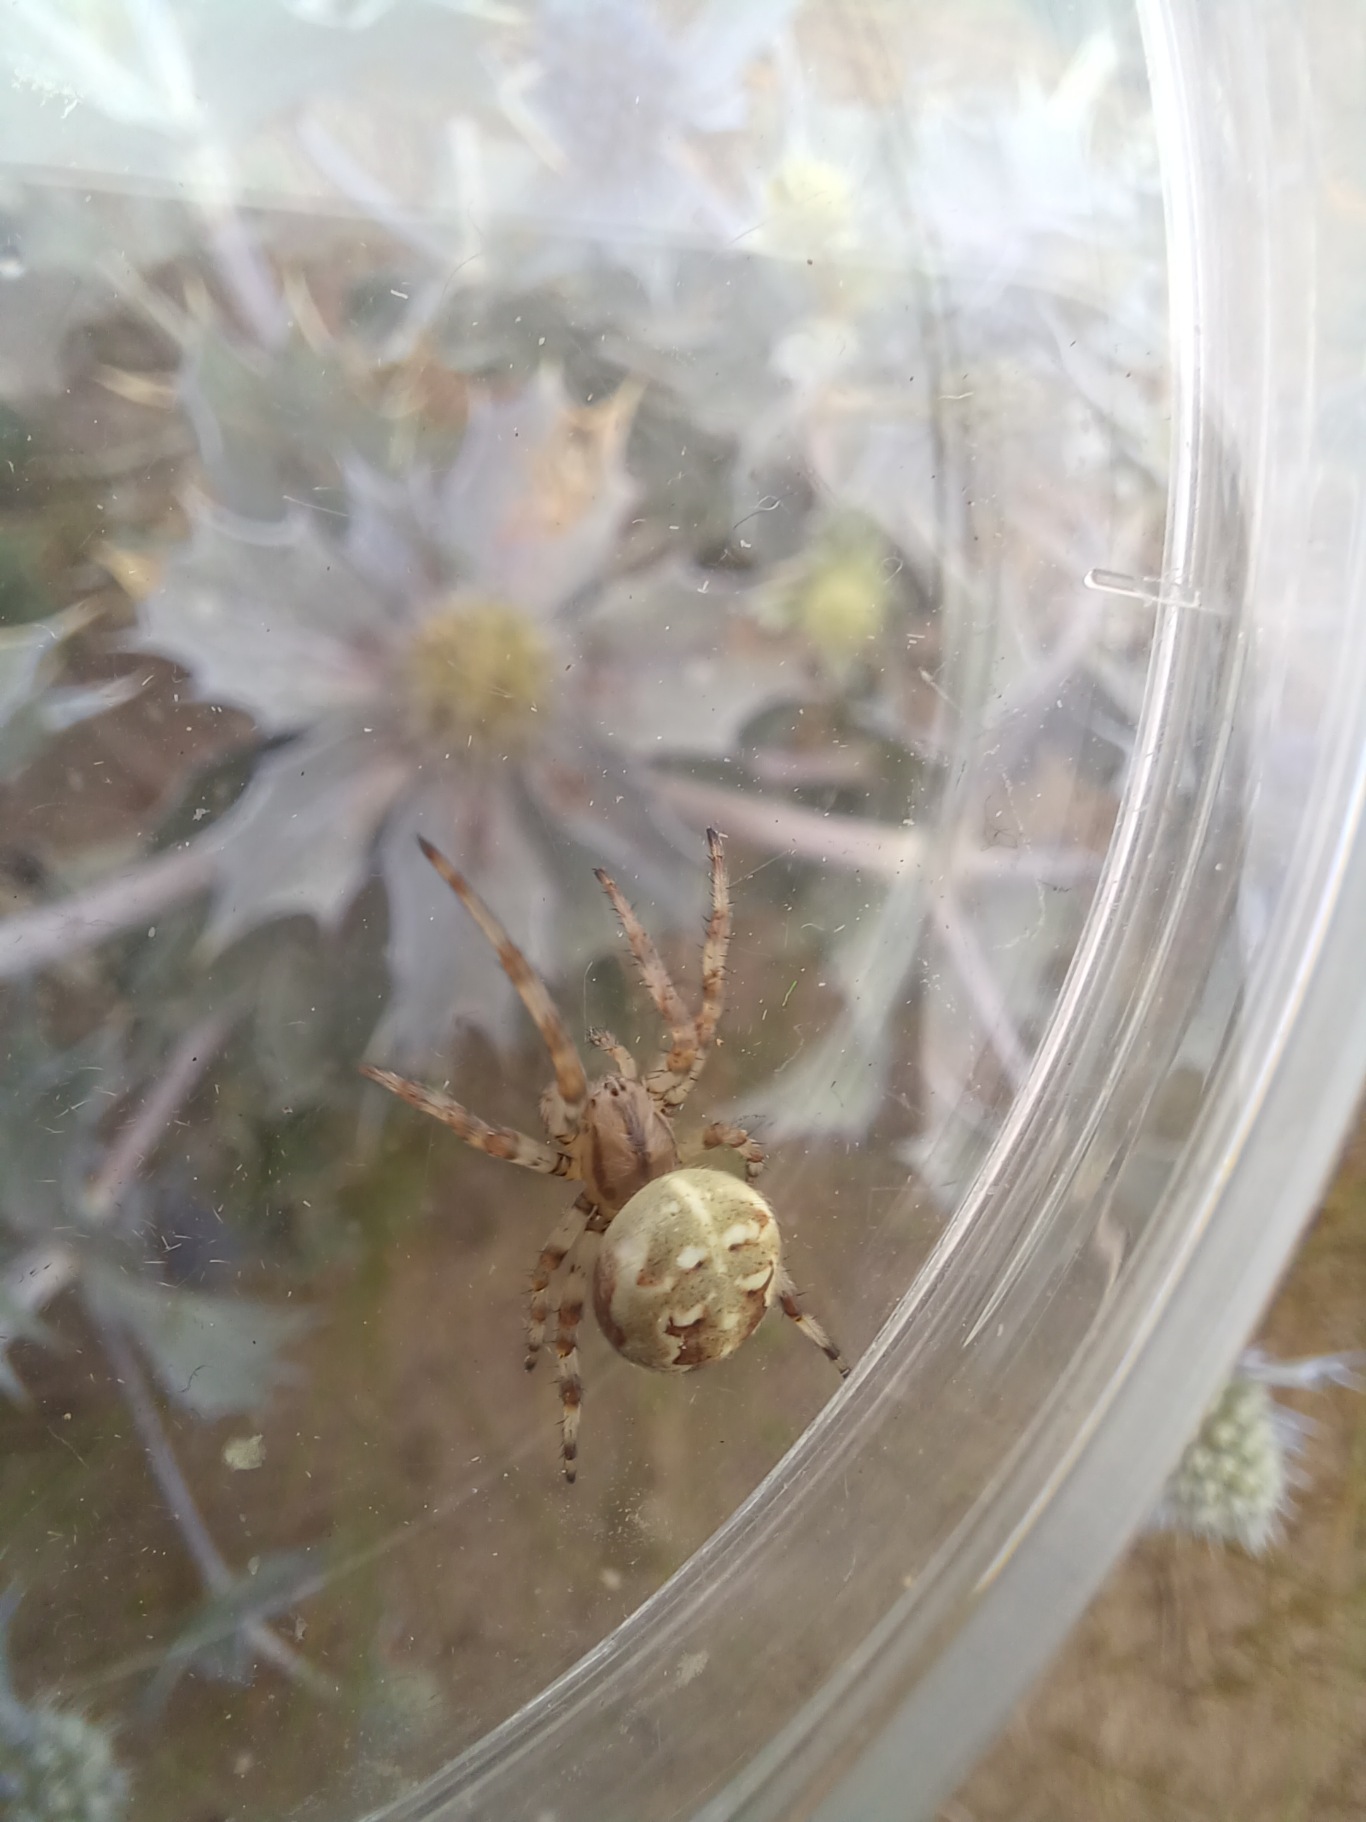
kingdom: Animalia
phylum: Arthropoda
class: Arachnida
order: Araneae
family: Araneidae
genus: Araneus
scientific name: Araneus quadratus
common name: Kvadratedderkop
